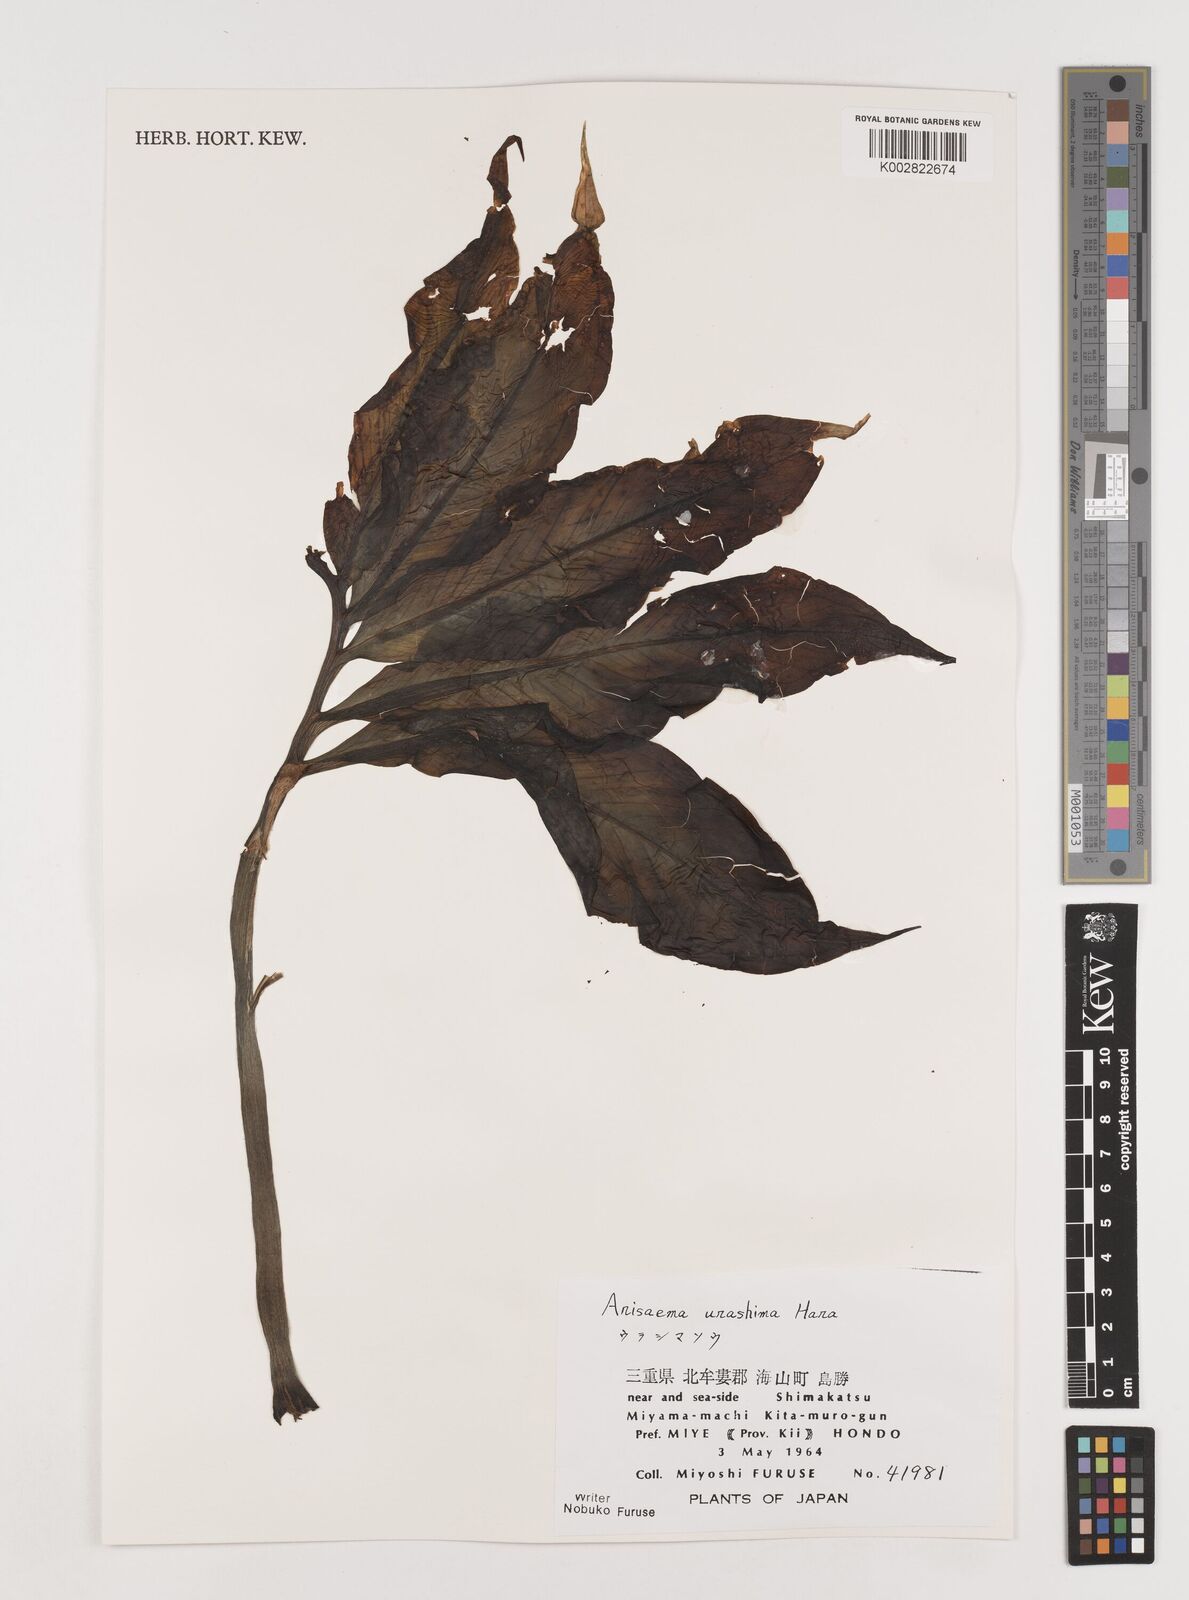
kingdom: Plantae
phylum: Tracheophyta
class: Liliopsida
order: Alismatales
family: Araceae
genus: Arisaema
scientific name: Arisaema
